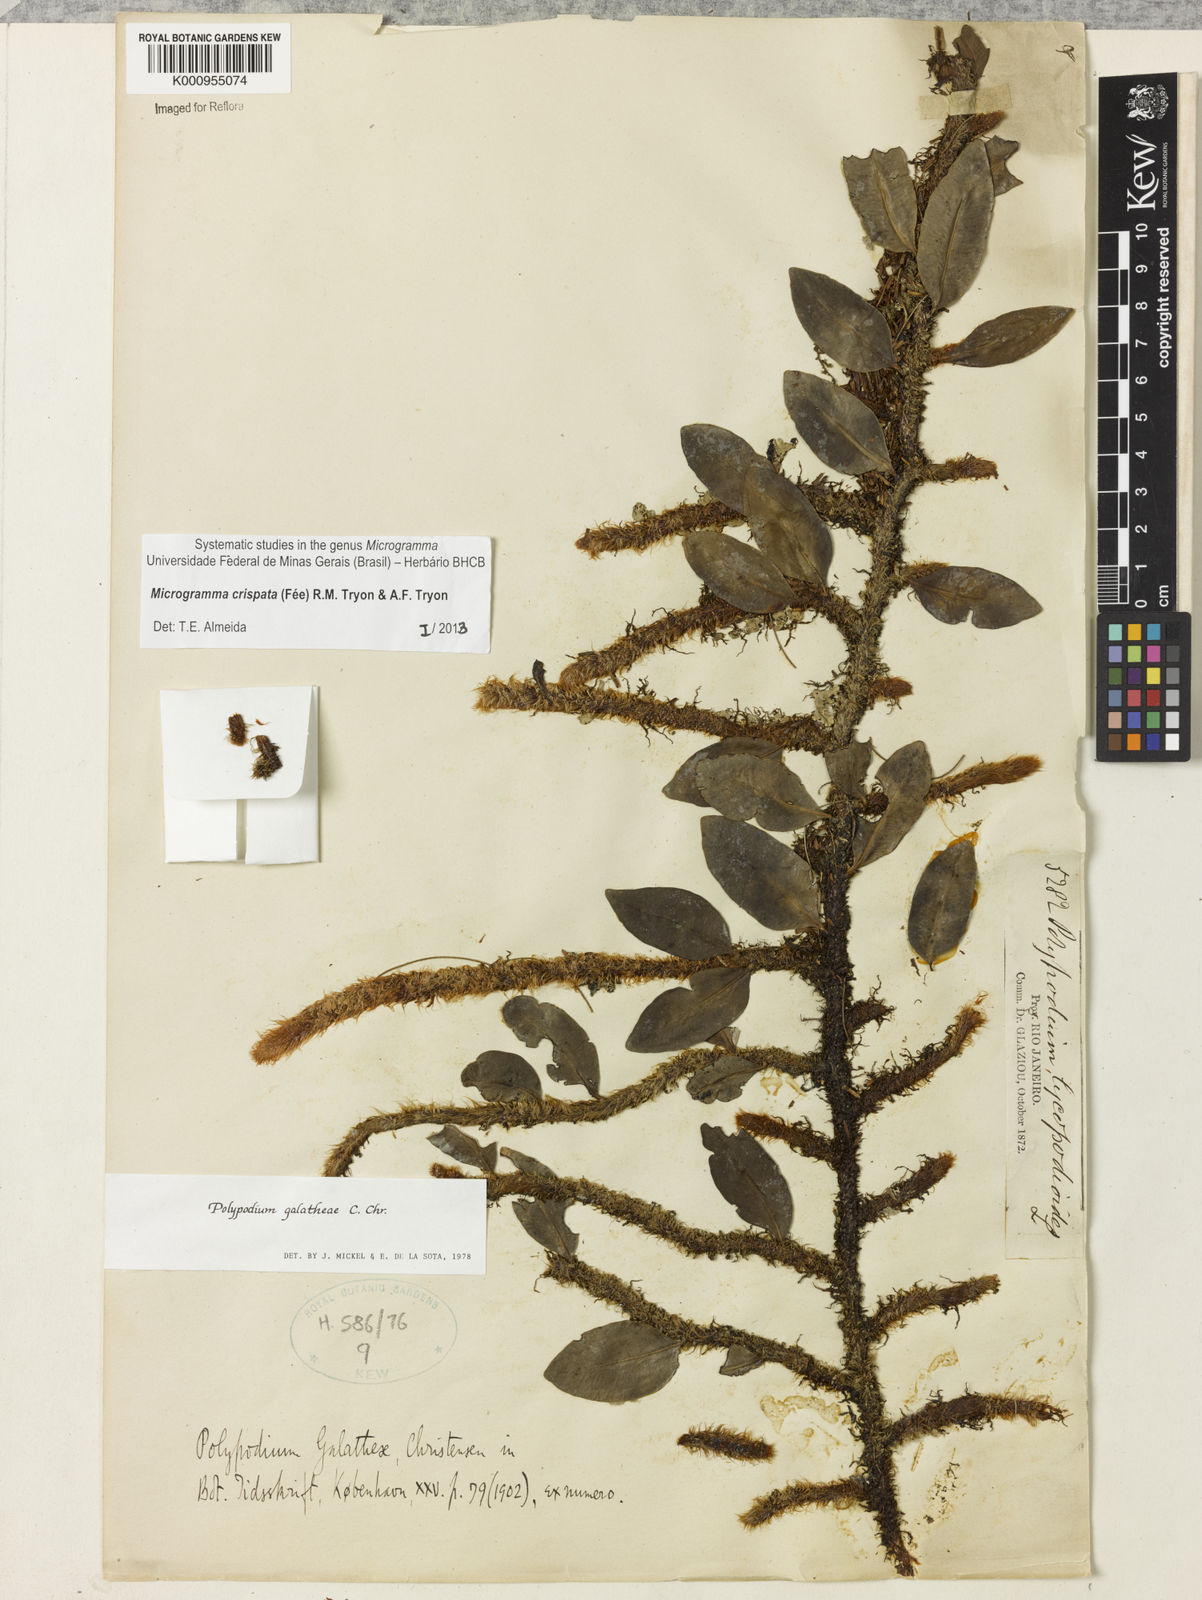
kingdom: Plantae
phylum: Tracheophyta
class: Polypodiopsida
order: Polypodiales
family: Polypodiaceae
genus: Microgramma
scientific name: Microgramma
